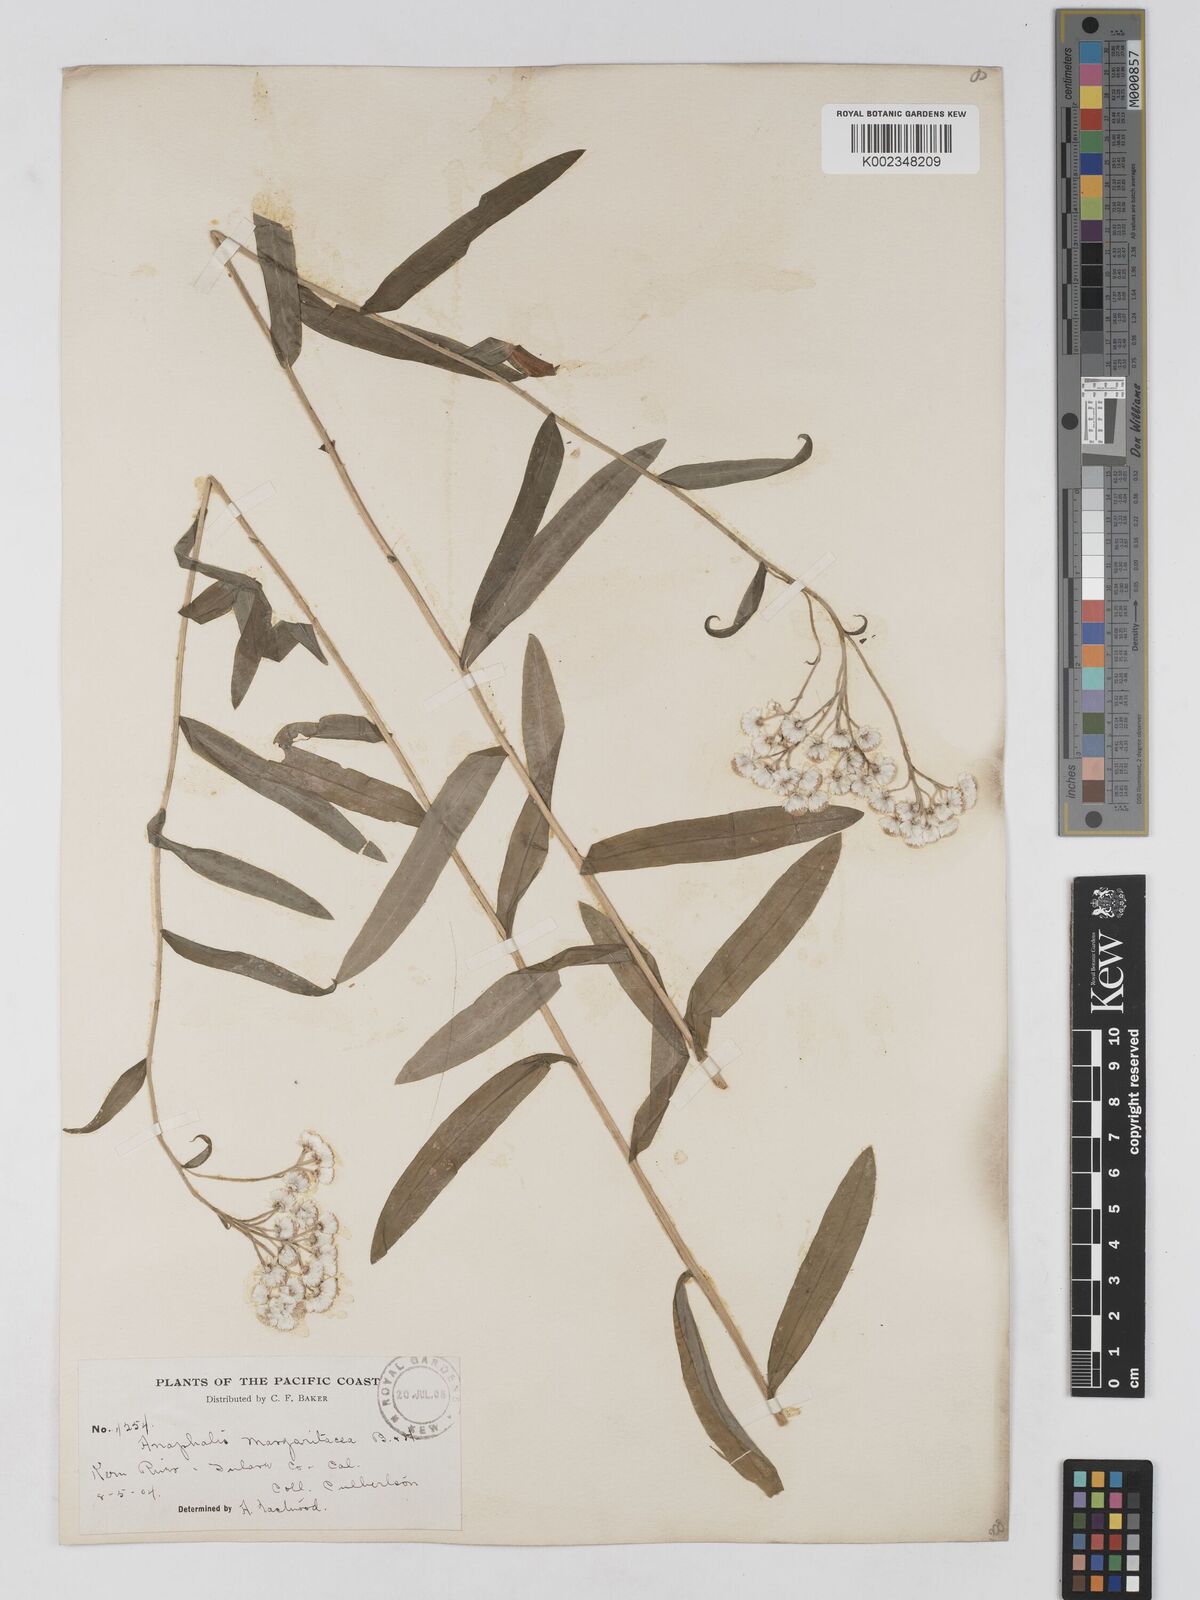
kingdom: Plantae
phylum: Tracheophyta
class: Magnoliopsida
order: Asterales
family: Asteraceae
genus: Anaphalis
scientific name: Anaphalis margaritacea
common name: Pearly everlasting
